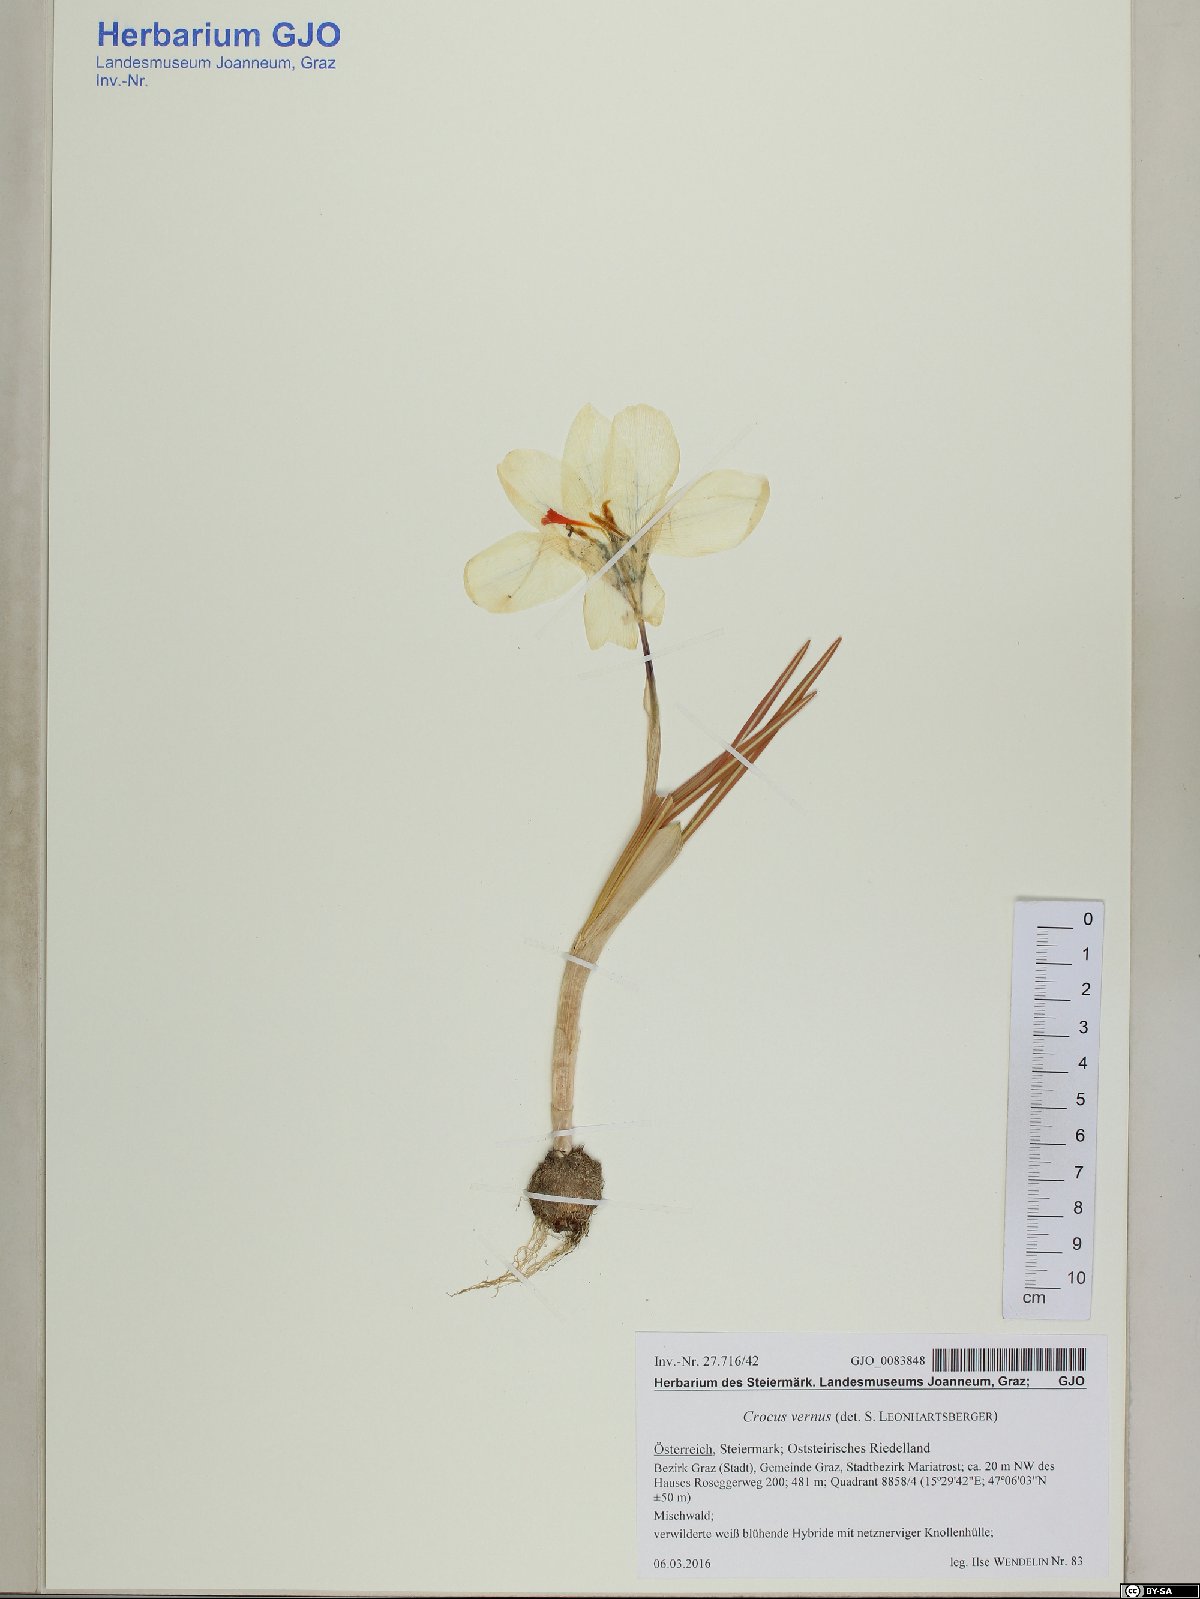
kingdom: Plantae
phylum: Tracheophyta
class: Liliopsida
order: Asparagales
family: Iridaceae
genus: Crocus
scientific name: Crocus vernus
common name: Spring crocus
